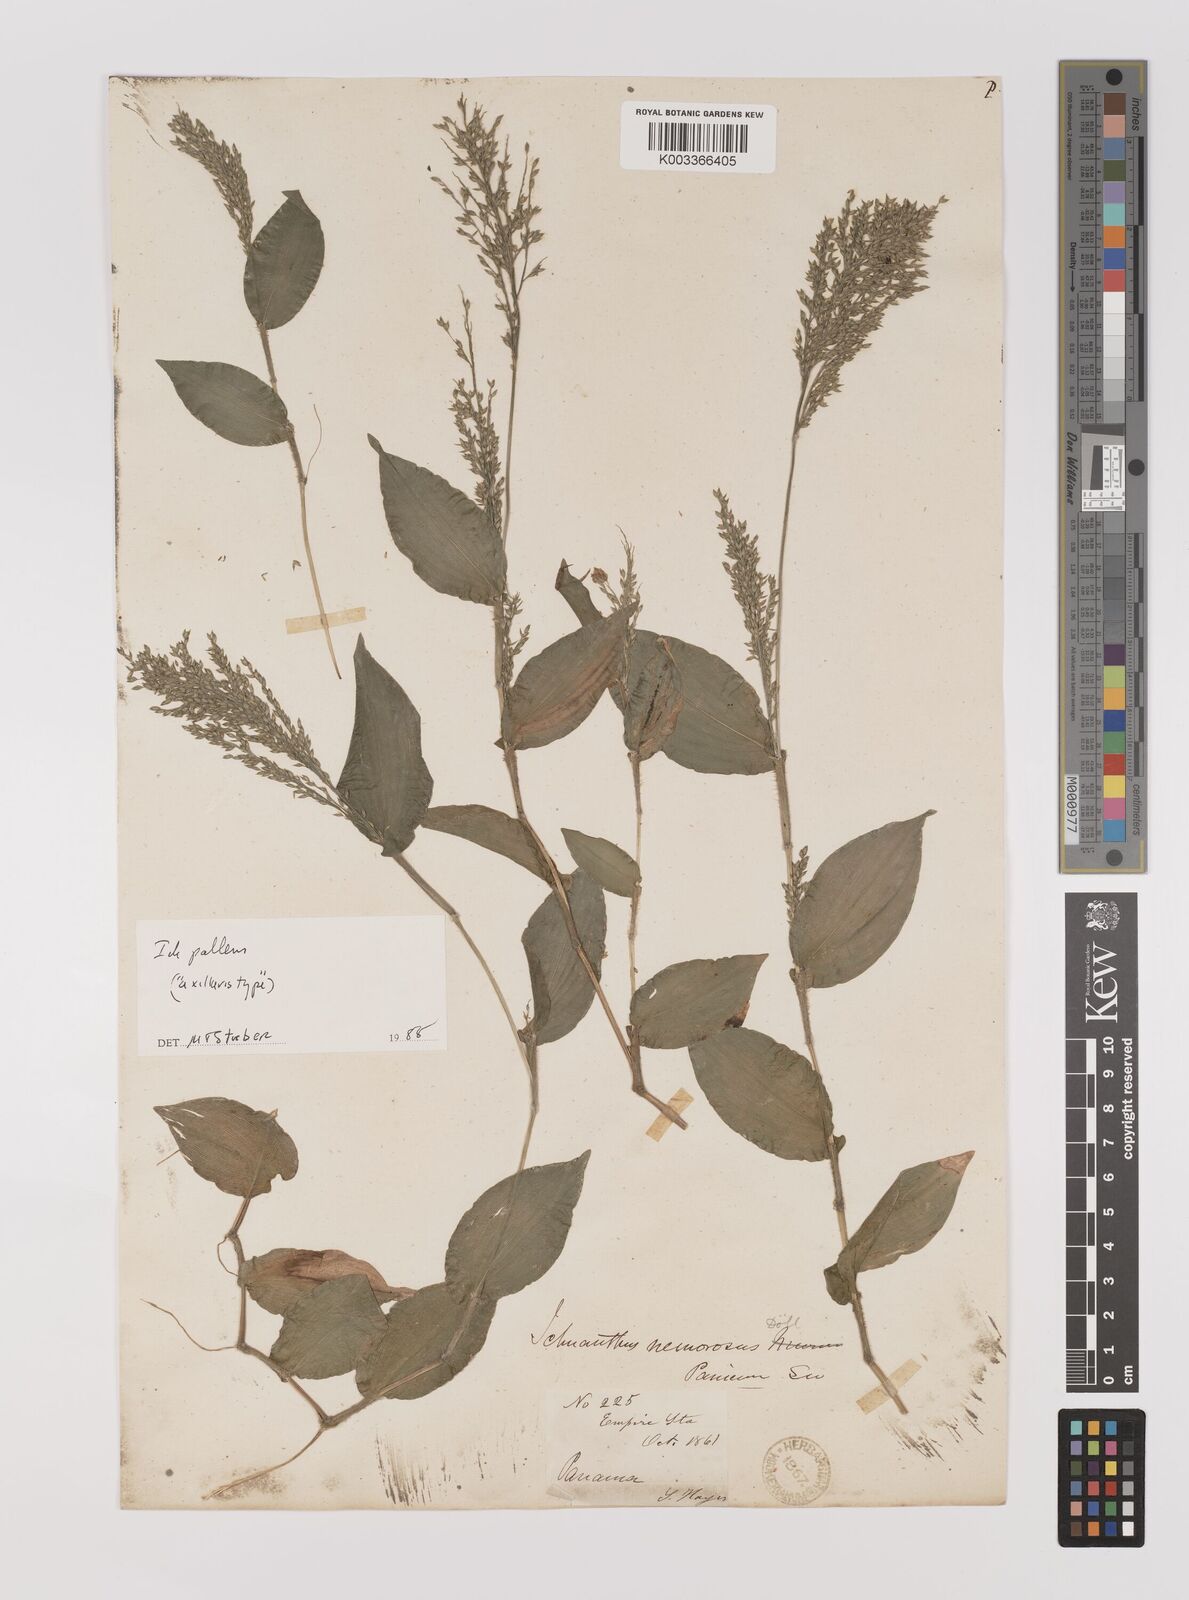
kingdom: Plantae
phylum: Tracheophyta
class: Liliopsida
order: Poales
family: Poaceae
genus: Ichnanthus
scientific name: Ichnanthus pallens
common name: Water grass
